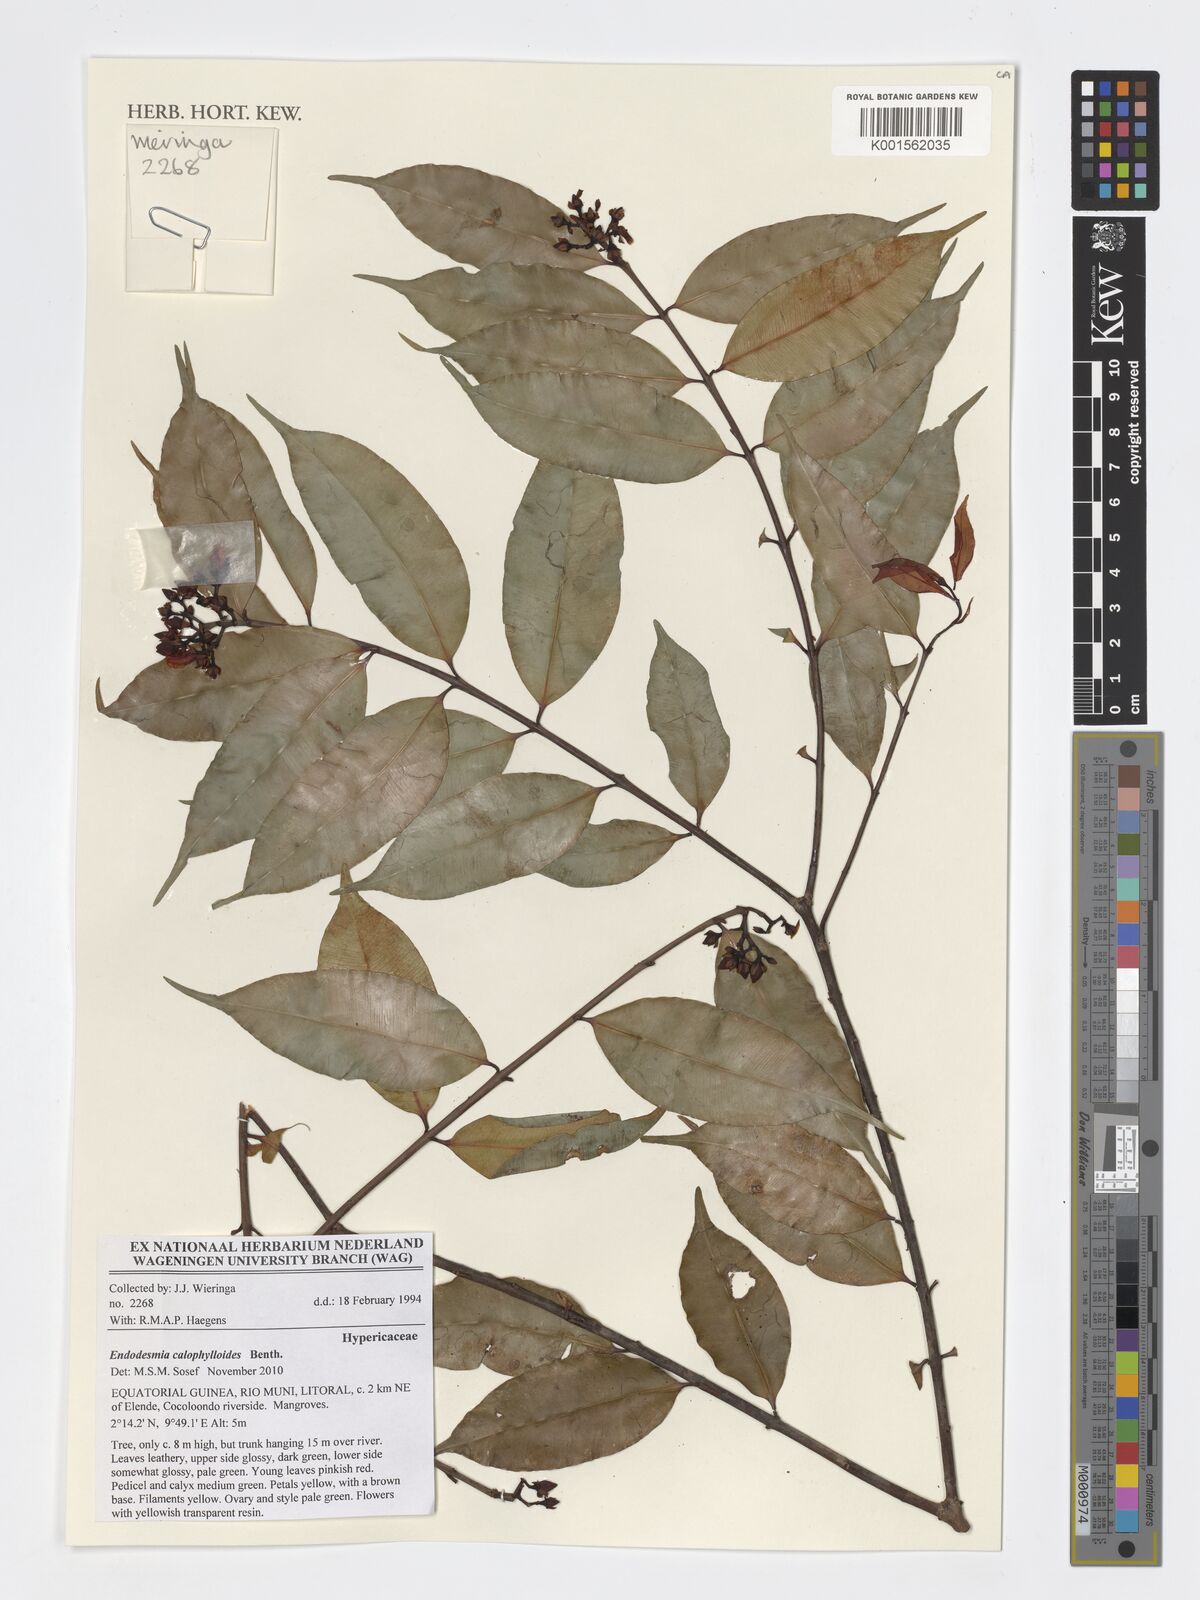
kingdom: Plantae
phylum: Tracheophyta
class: Magnoliopsida
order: Malpighiales
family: Calophyllaceae
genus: Endodesmia
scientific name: Endodesmia calophylloides
